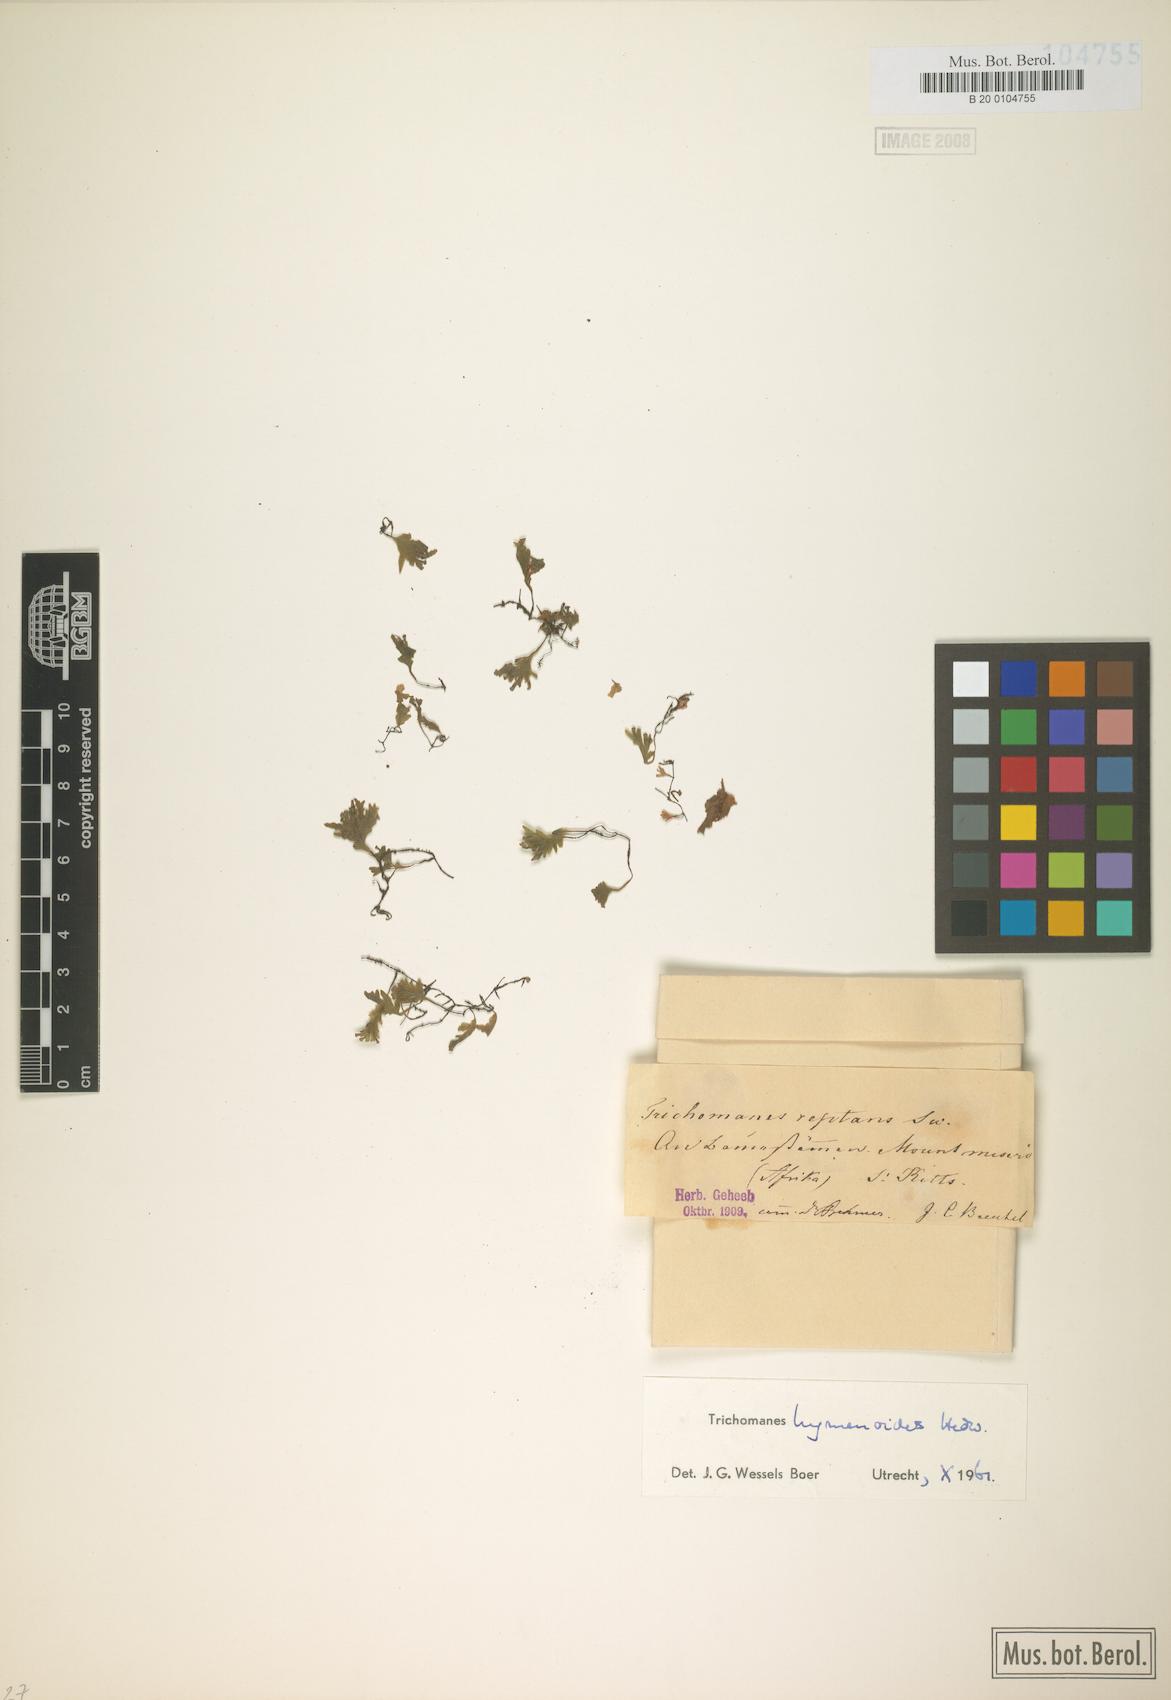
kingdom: Plantae
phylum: Tracheophyta
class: Polypodiopsida
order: Hymenophyllales
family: Hymenophyllaceae
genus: Didymoglossum
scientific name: Didymoglossum hymenoides
